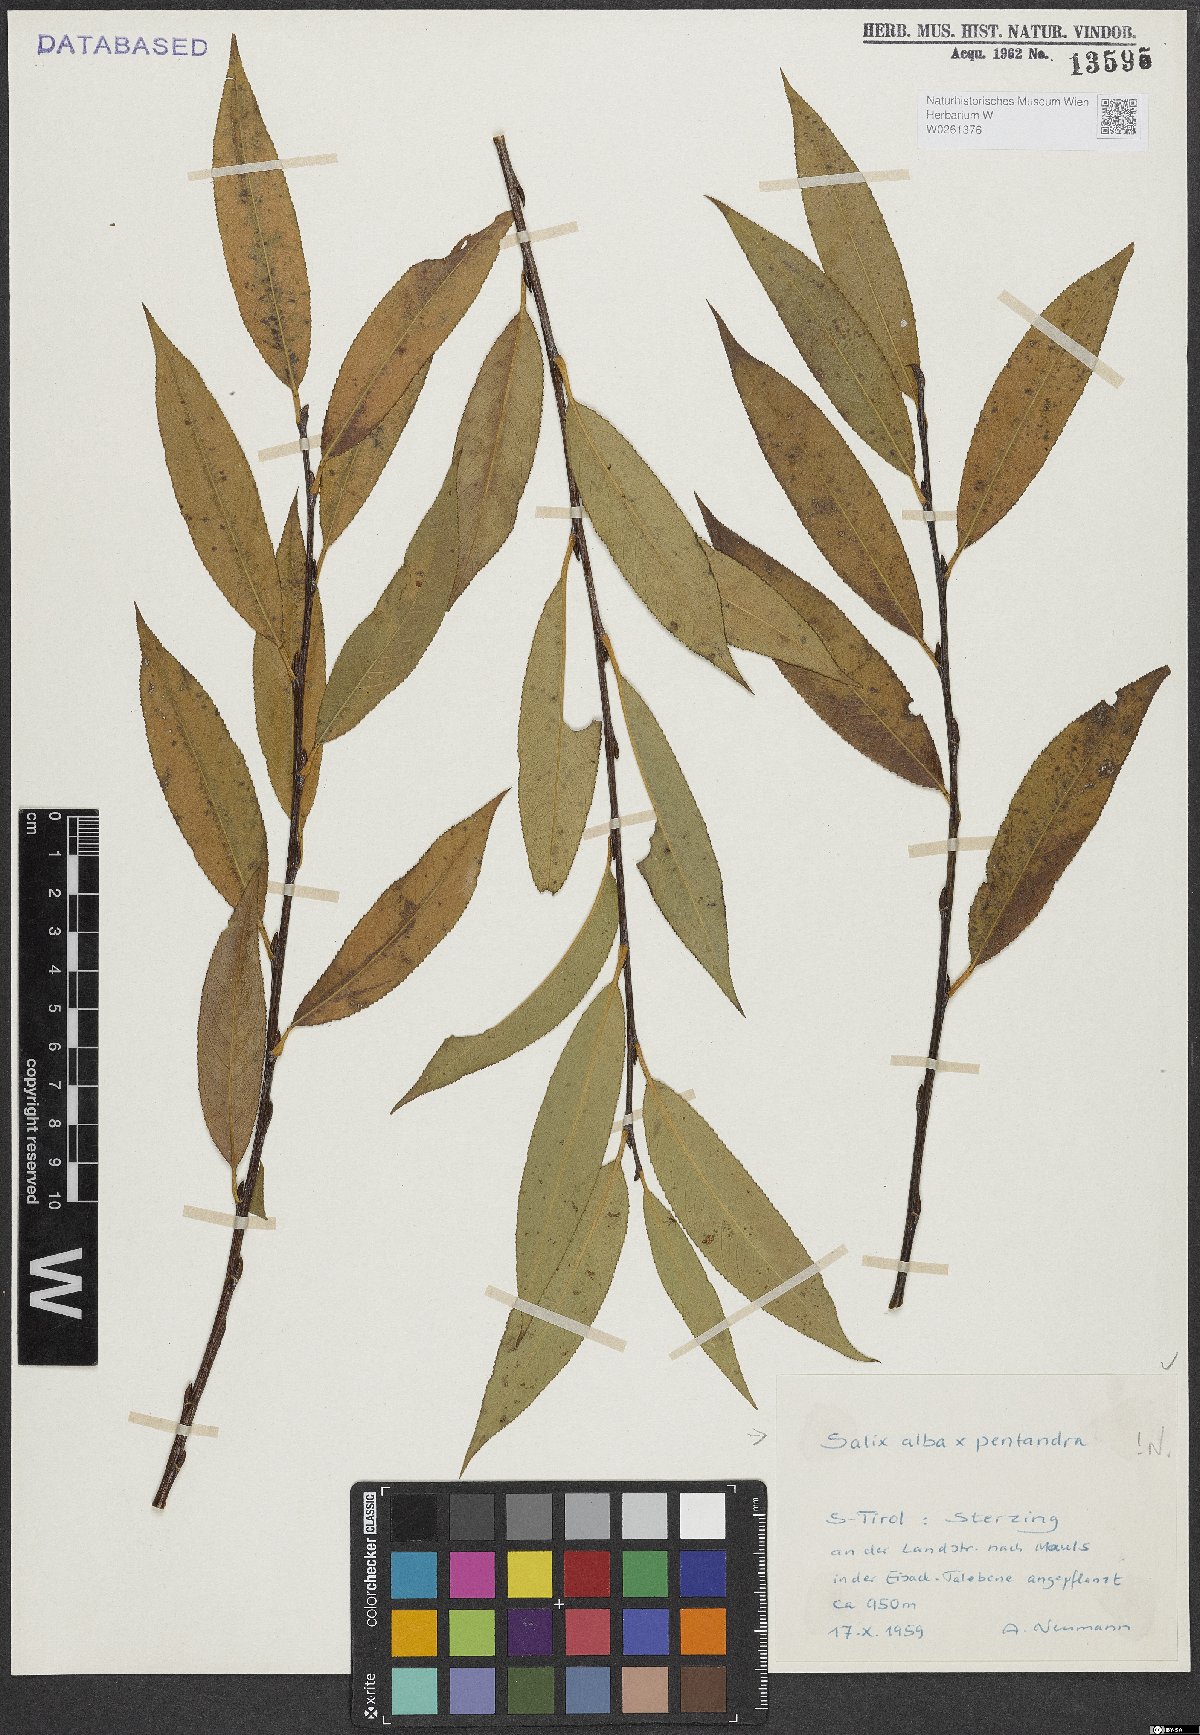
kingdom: Plantae
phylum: Tracheophyta
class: Magnoliopsida
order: Malpighiales
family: Salicaceae
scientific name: Salicaceae
